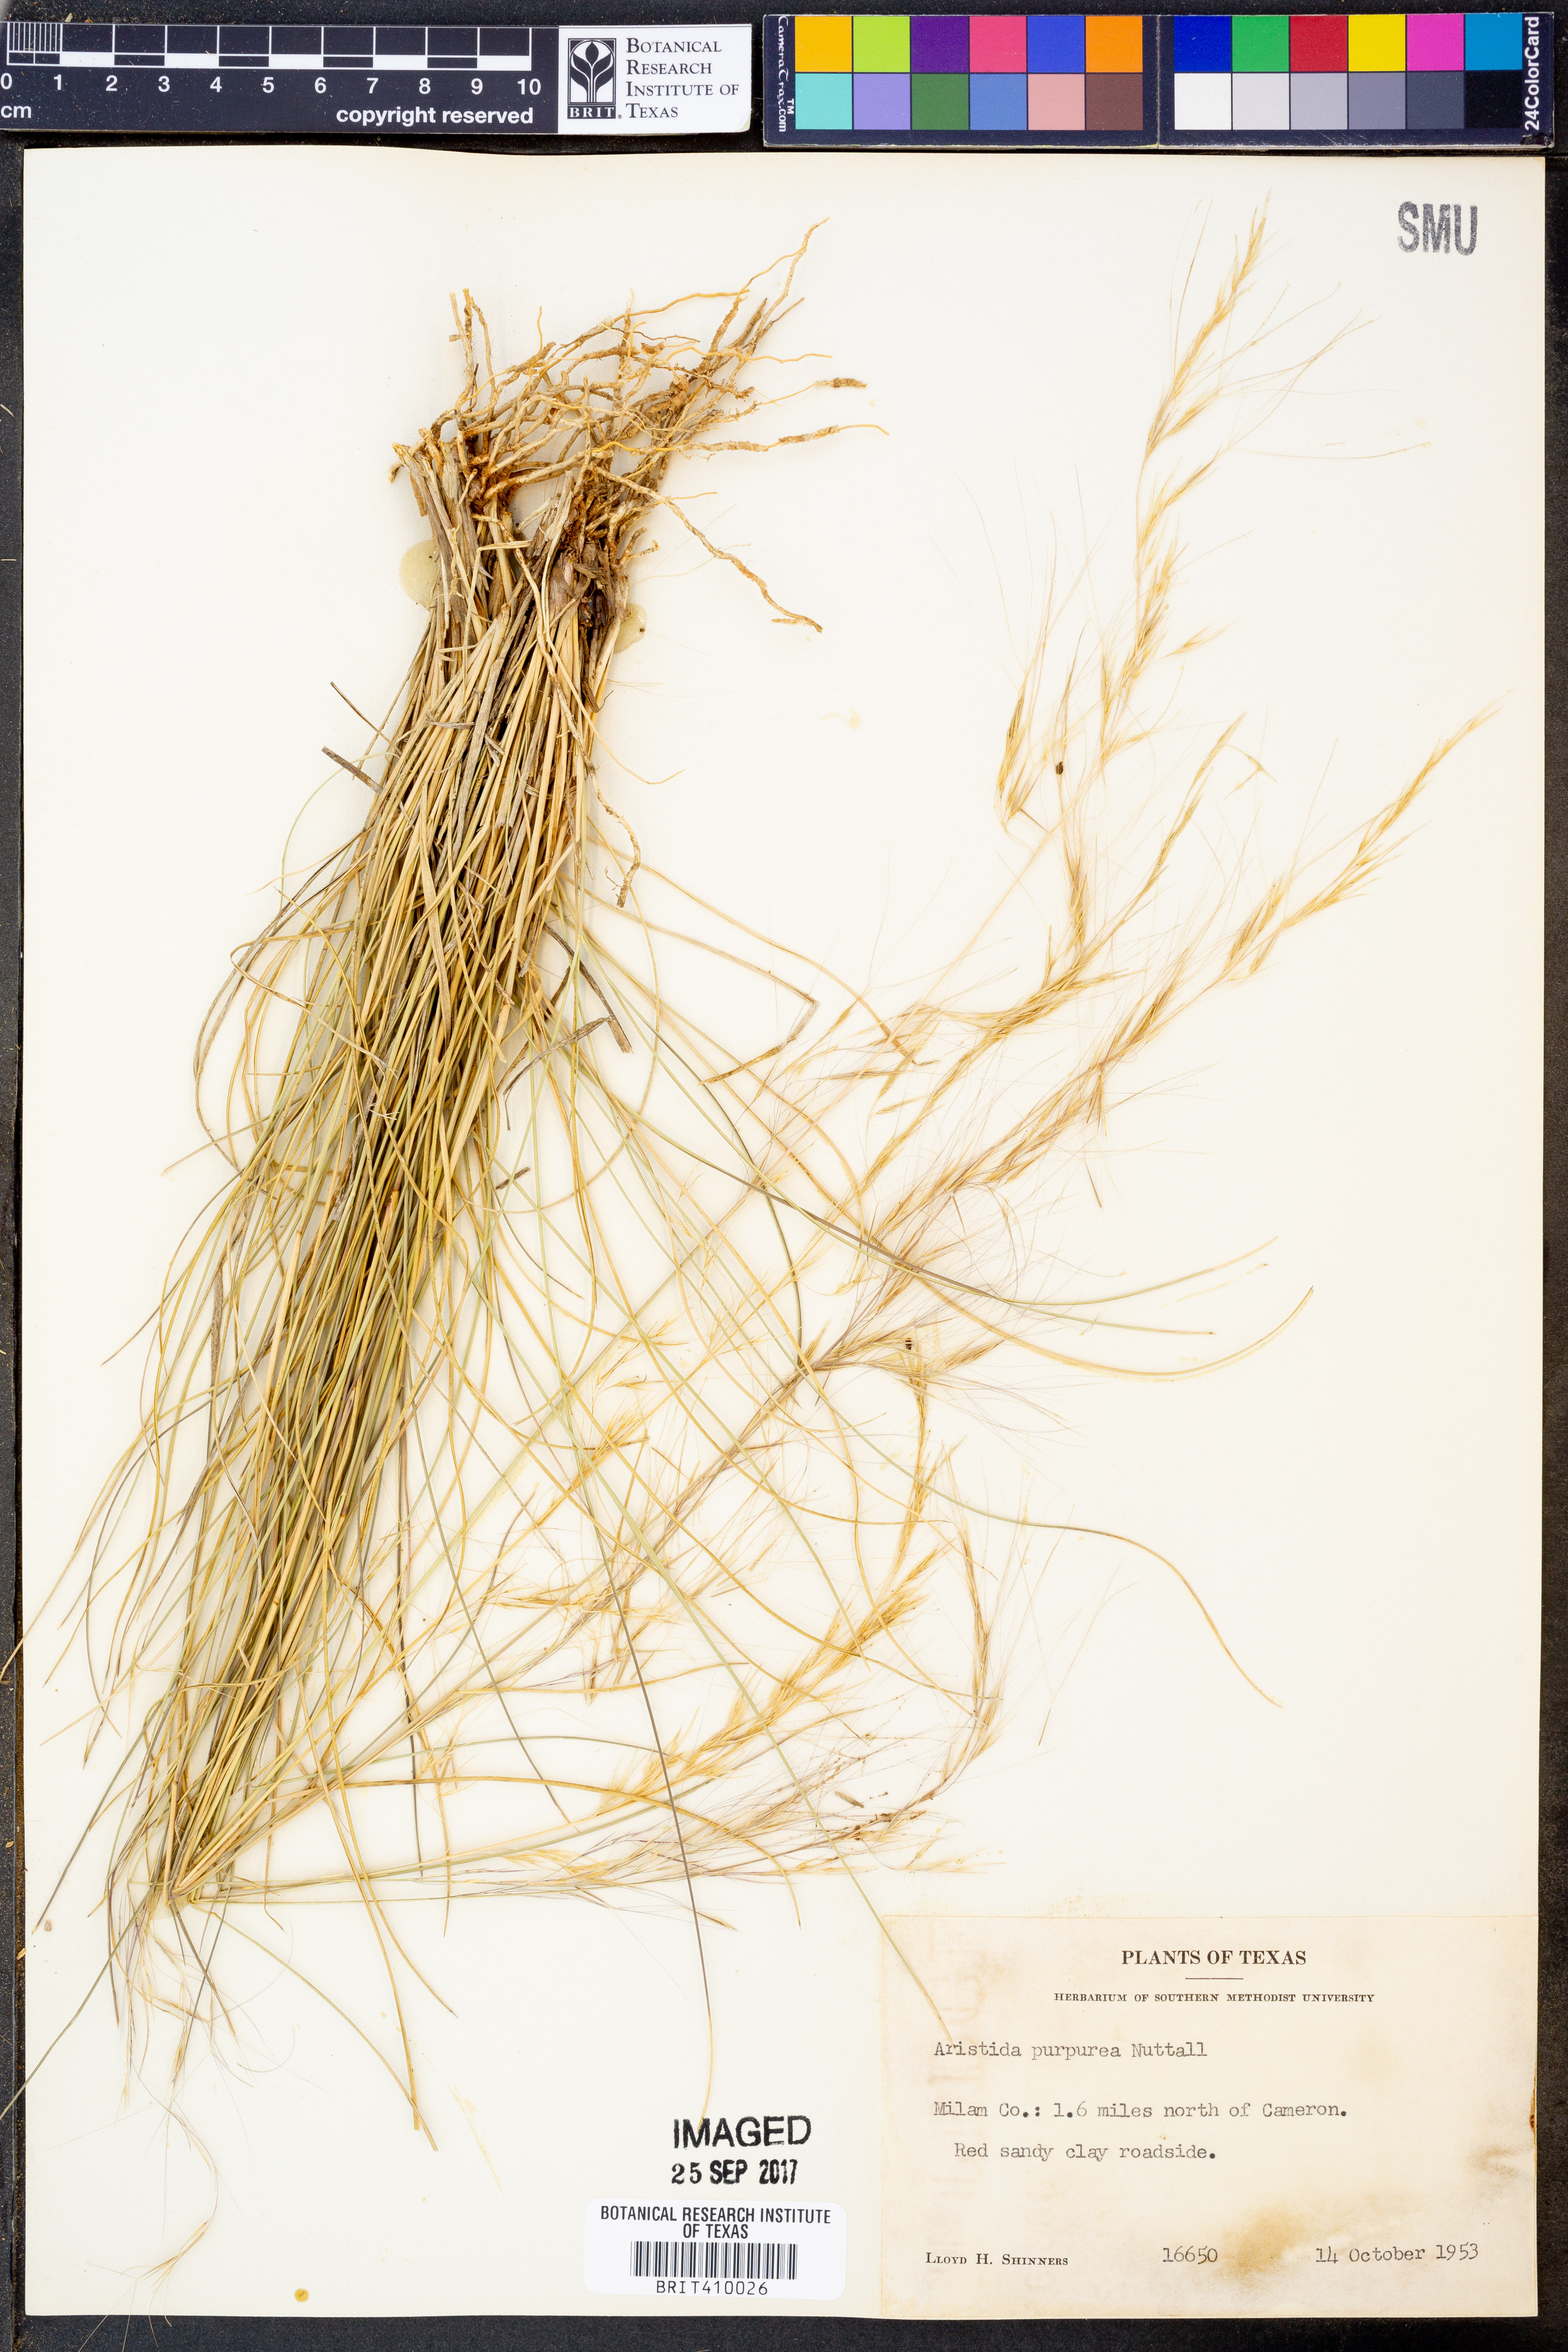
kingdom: Plantae
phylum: Tracheophyta
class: Liliopsida
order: Poales
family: Poaceae
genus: Aristida
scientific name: Aristida purpurea
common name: Purple threeawn
